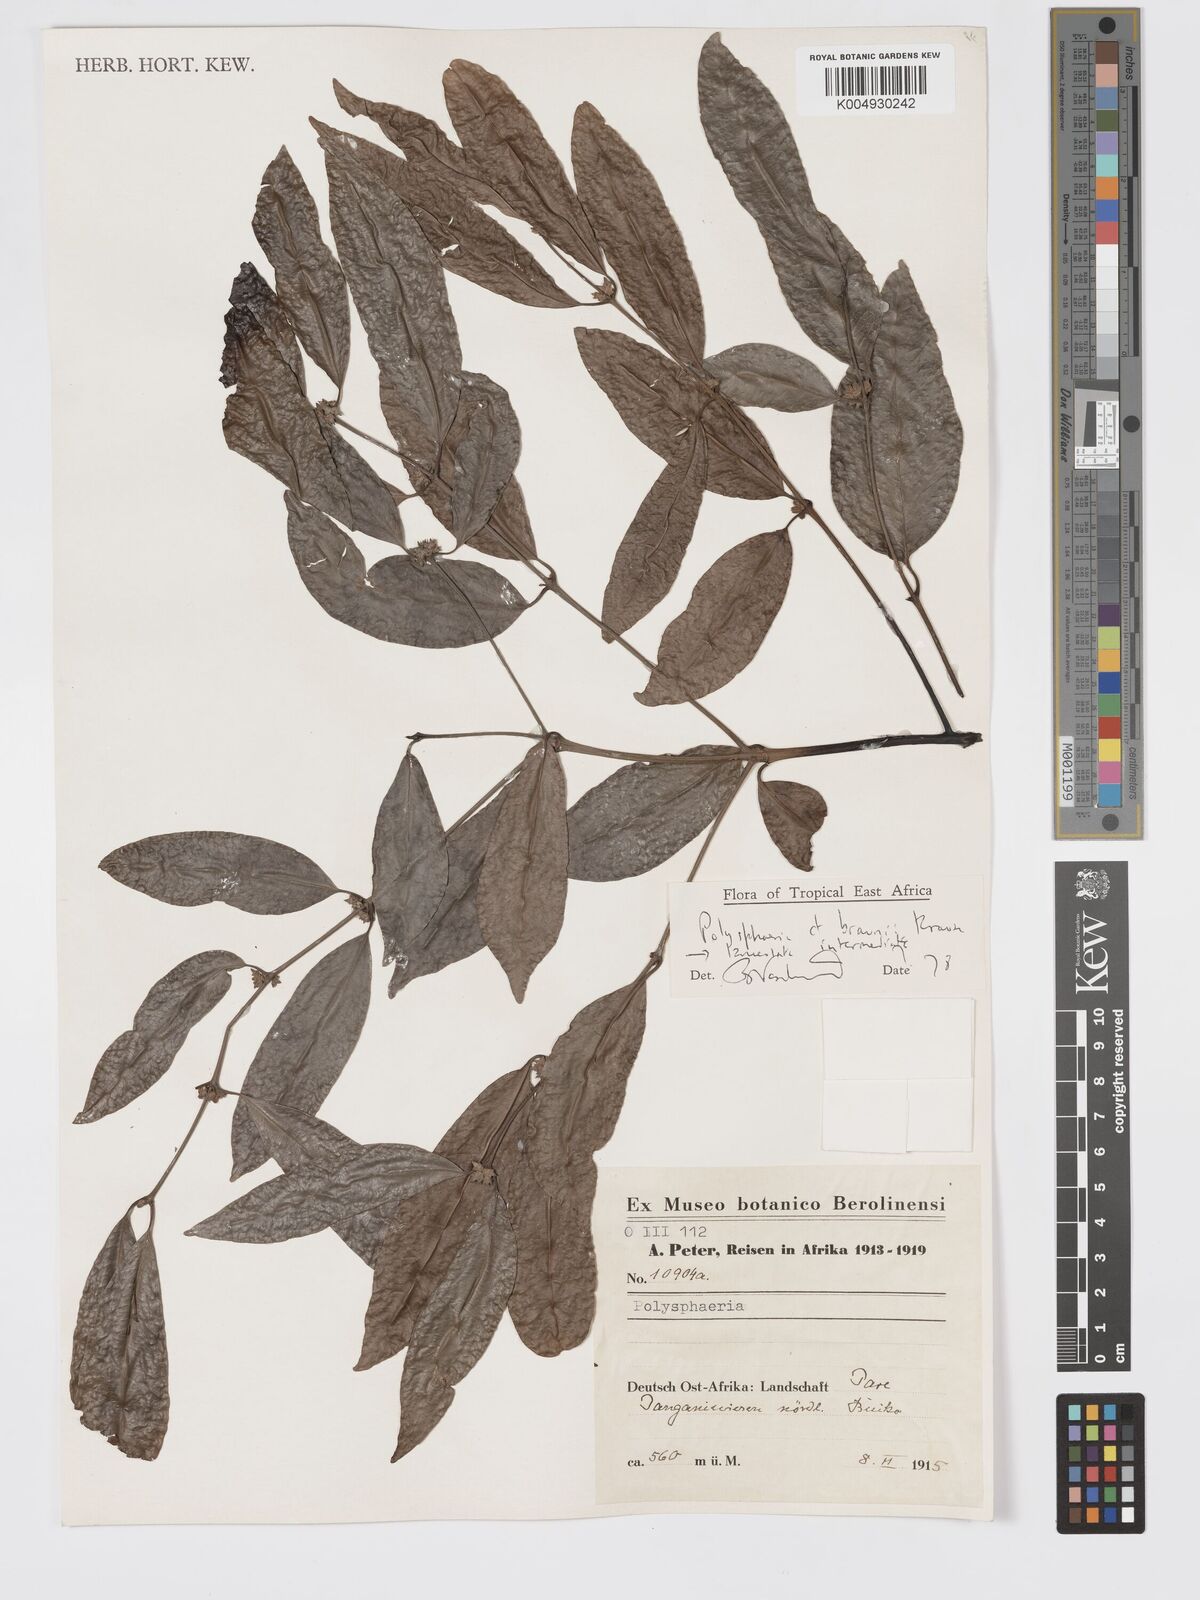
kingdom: Plantae
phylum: Tracheophyta
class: Magnoliopsida
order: Gentianales
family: Rubiaceae
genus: Polysphaeria
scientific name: Polysphaeria lanceolata
